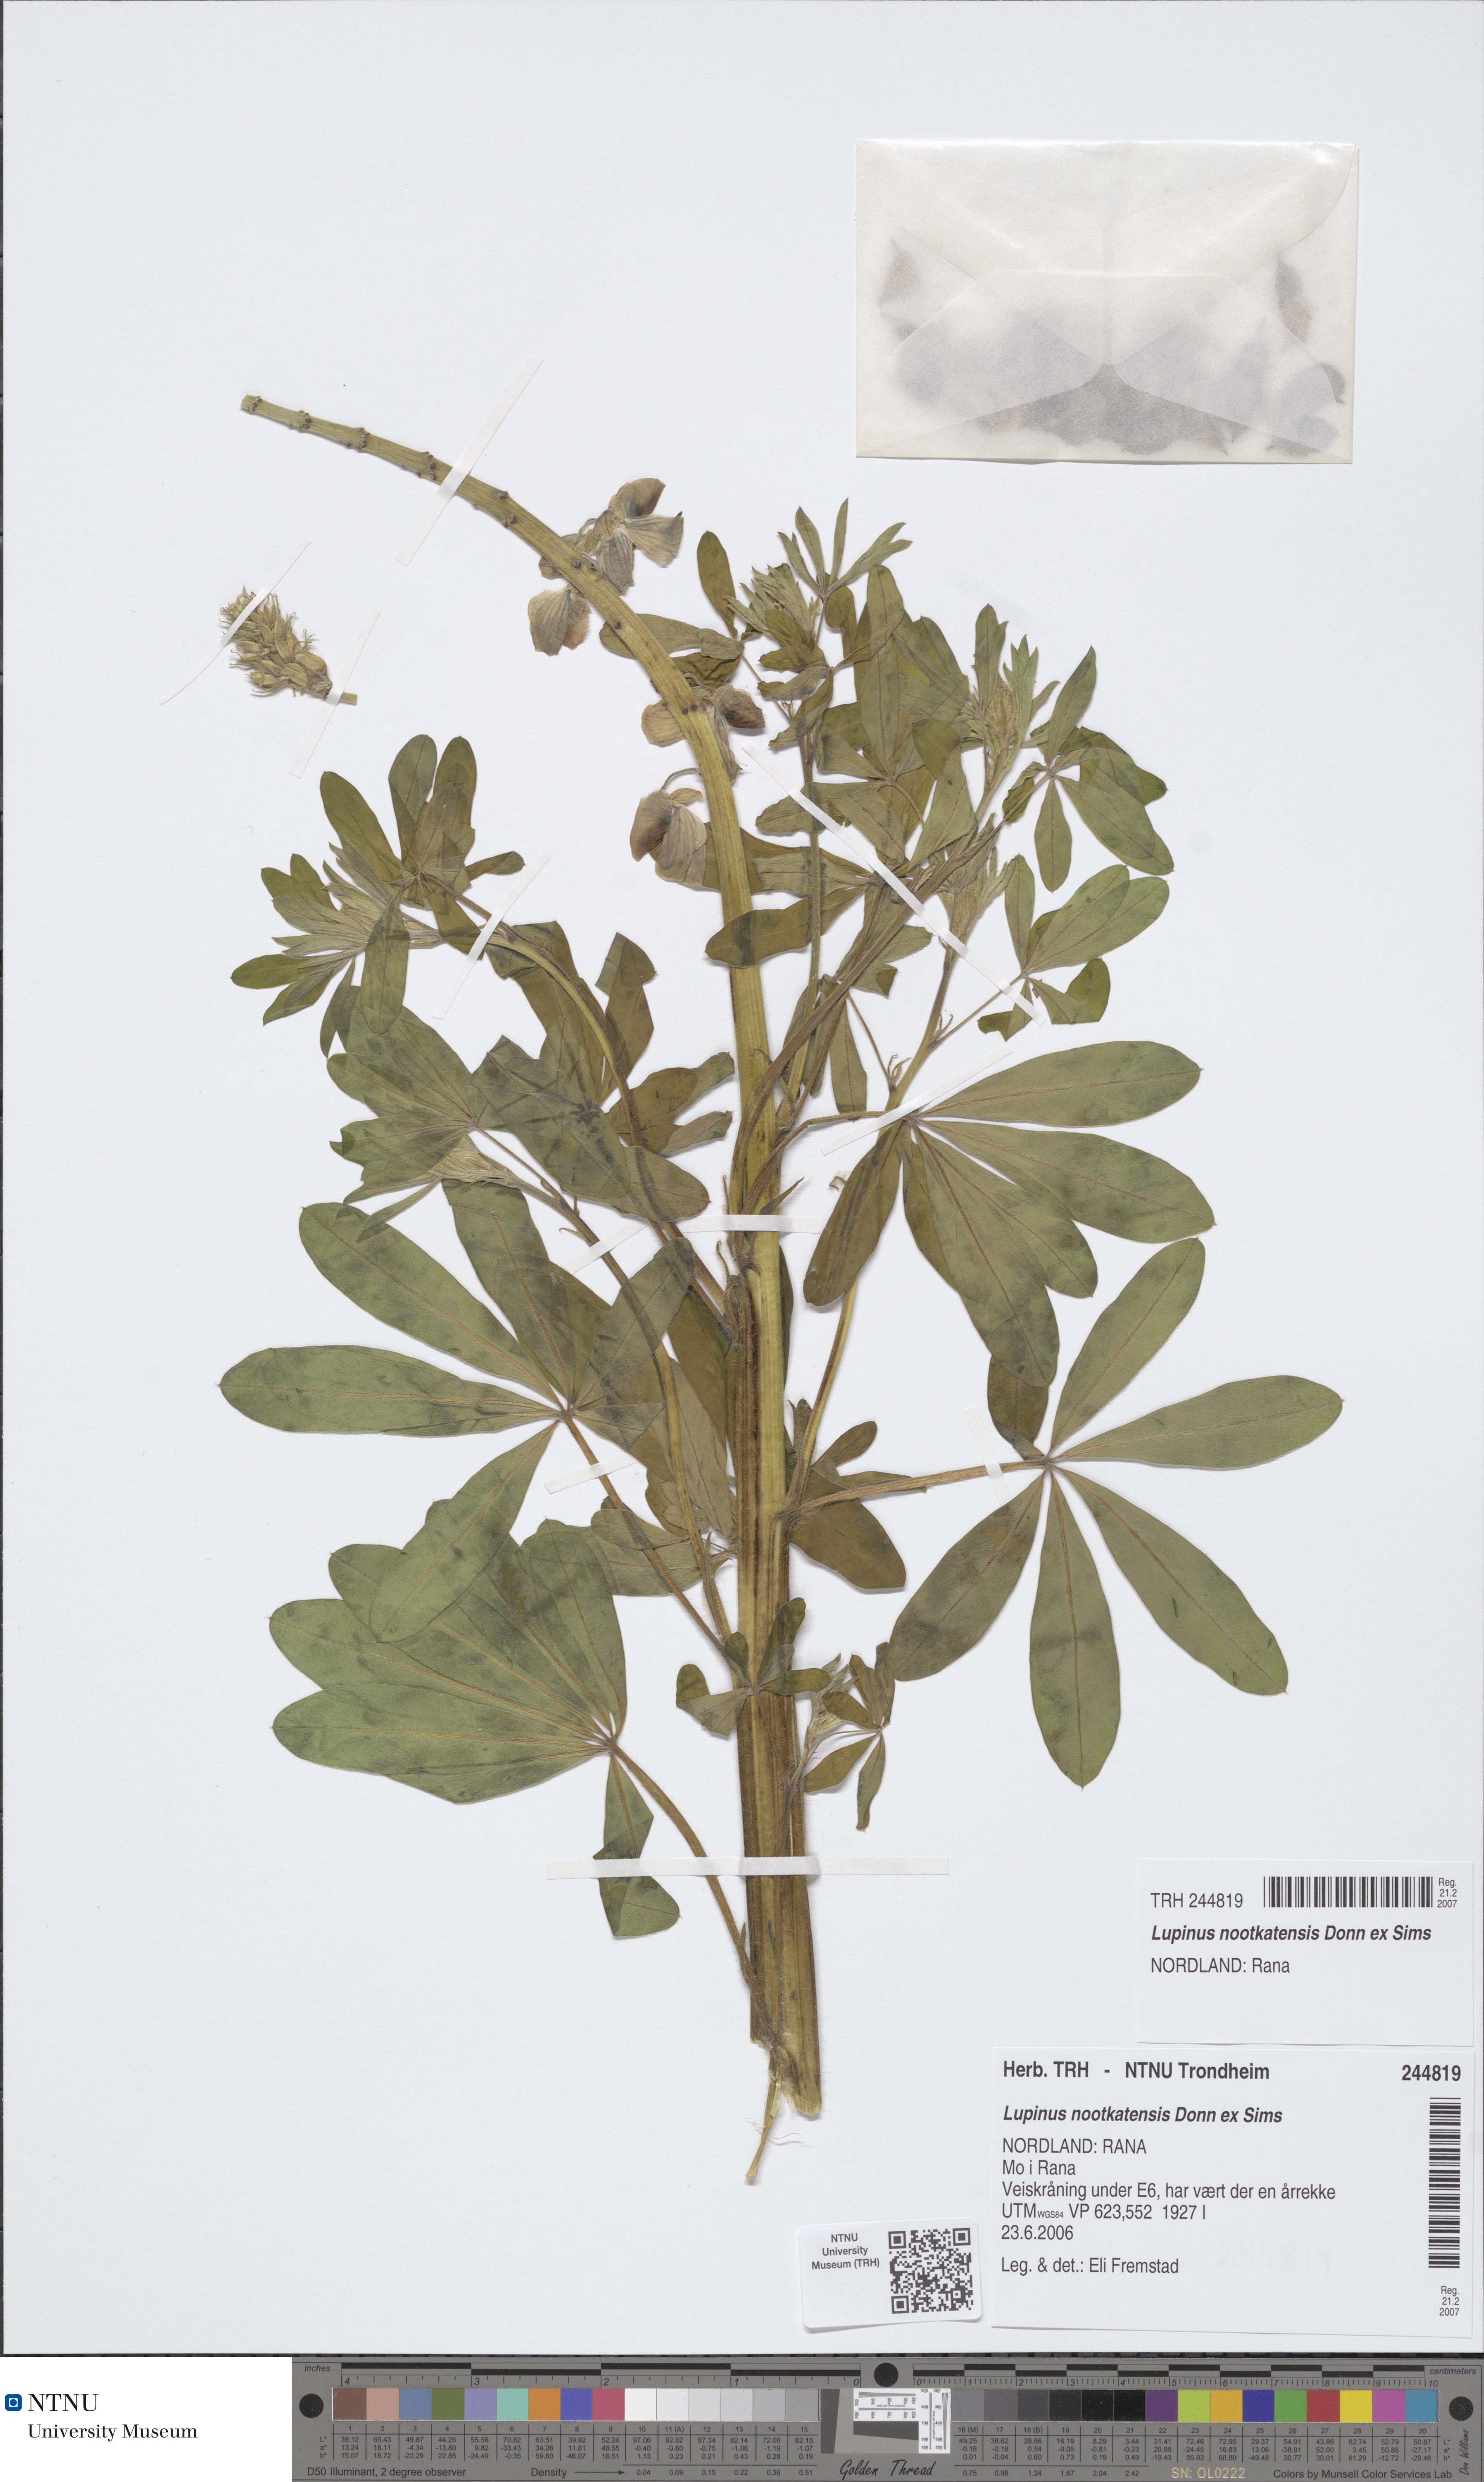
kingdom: Plantae
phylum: Tracheophyta
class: Magnoliopsida
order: Fabales
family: Fabaceae
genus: Lupinus
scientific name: Lupinus nootkatensis
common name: Nootka lupine
